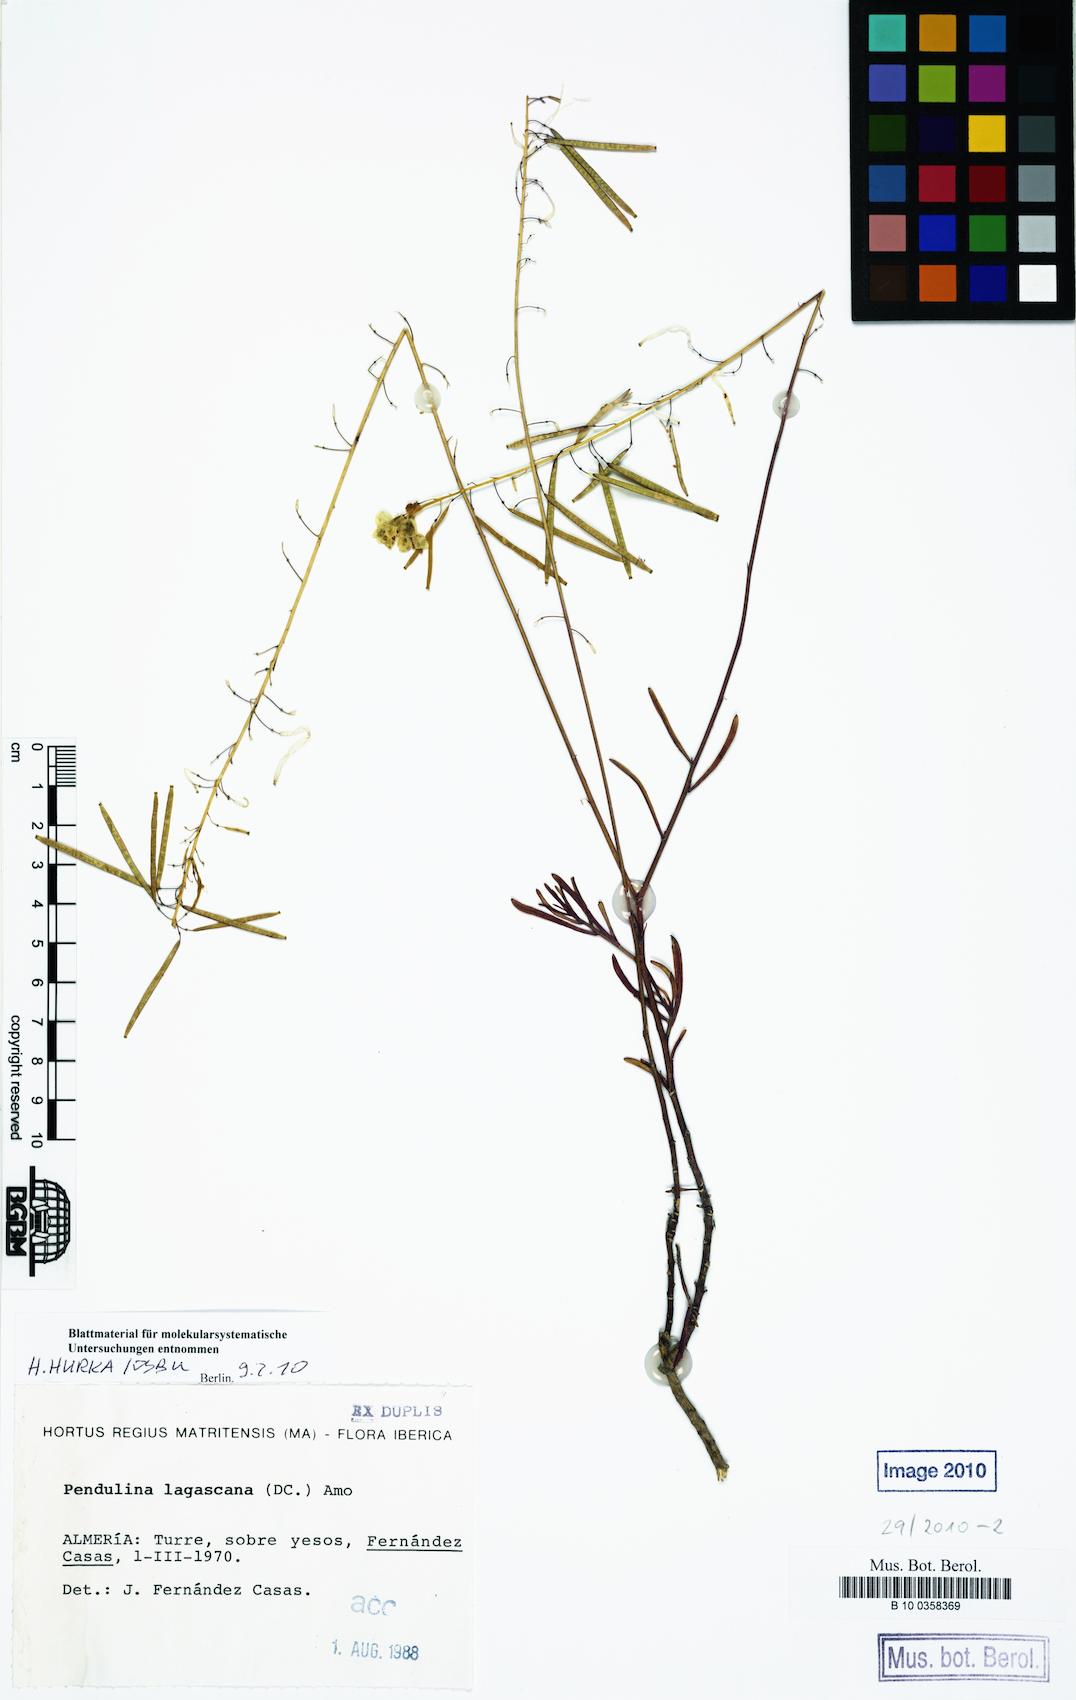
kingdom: Plantae
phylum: Tracheophyta
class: Magnoliopsida
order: Brassicales
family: Brassicaceae
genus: Diplotaxis
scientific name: Diplotaxis harra
